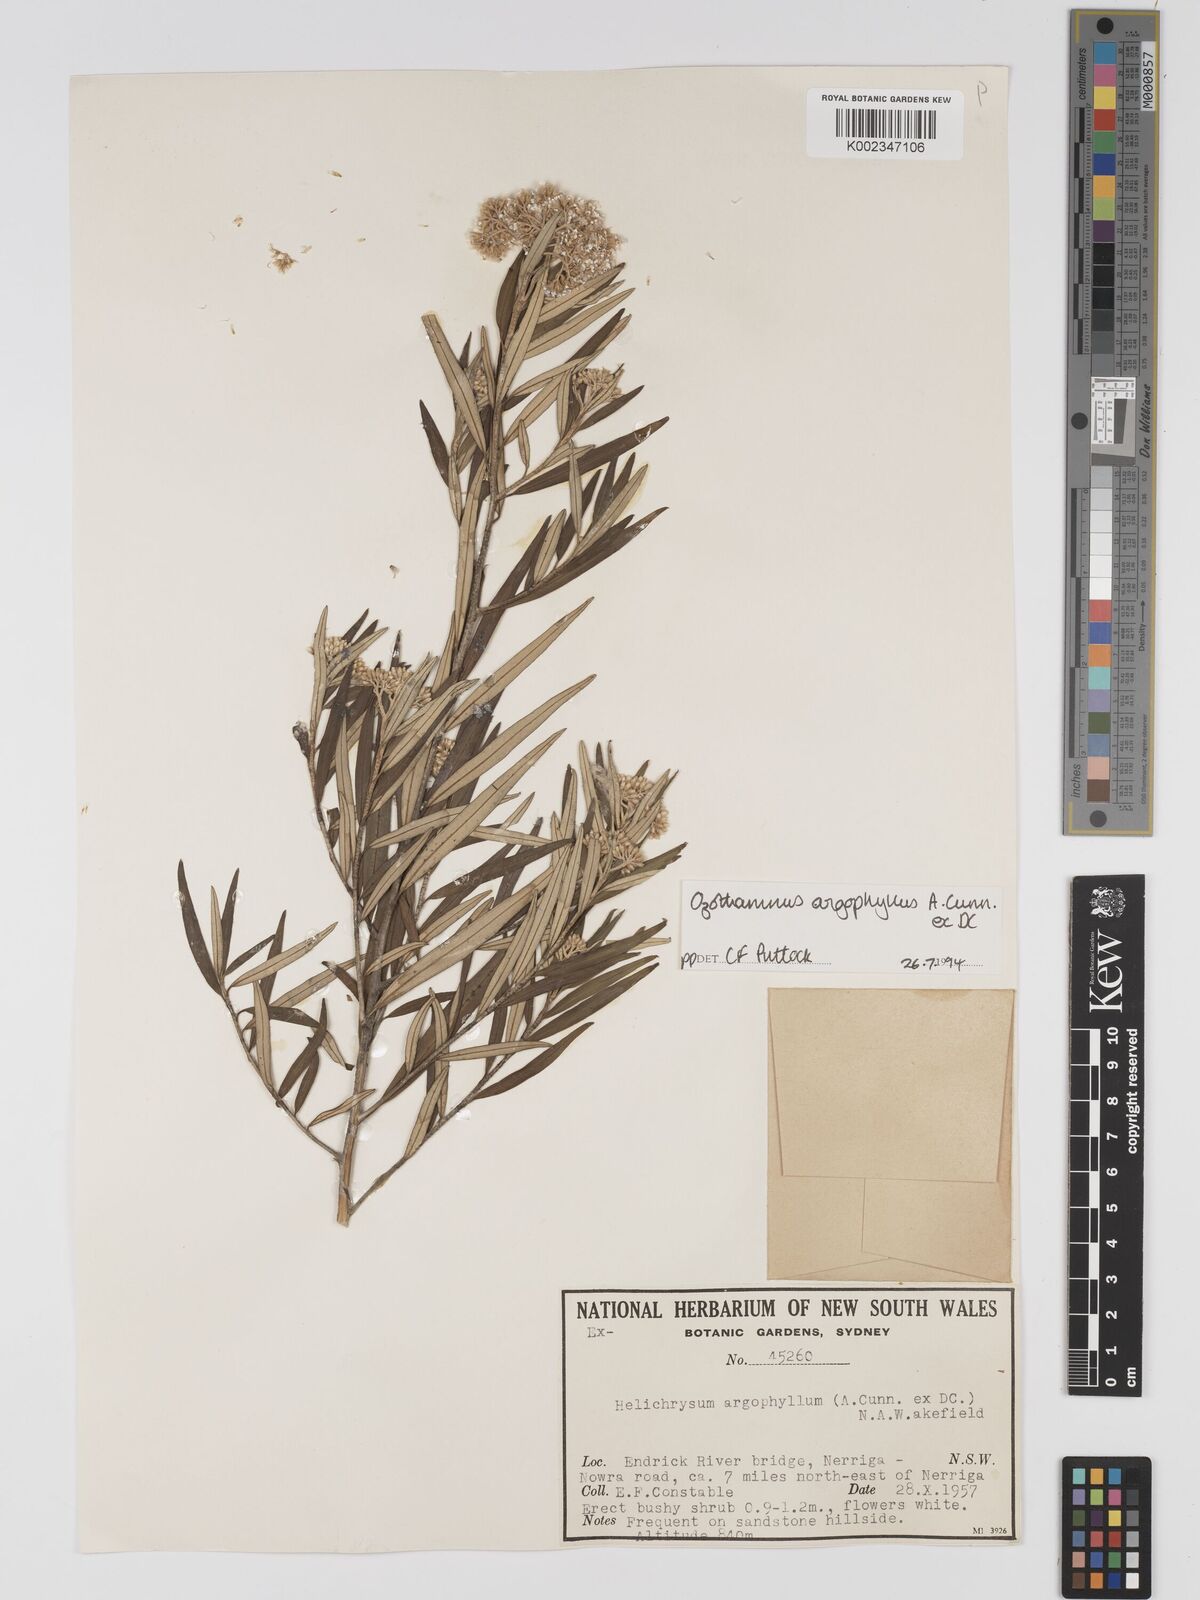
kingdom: Plantae
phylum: Tracheophyta
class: Magnoliopsida
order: Asterales
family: Asteraceae
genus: Ozothamnus
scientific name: Ozothamnus argophyllus
